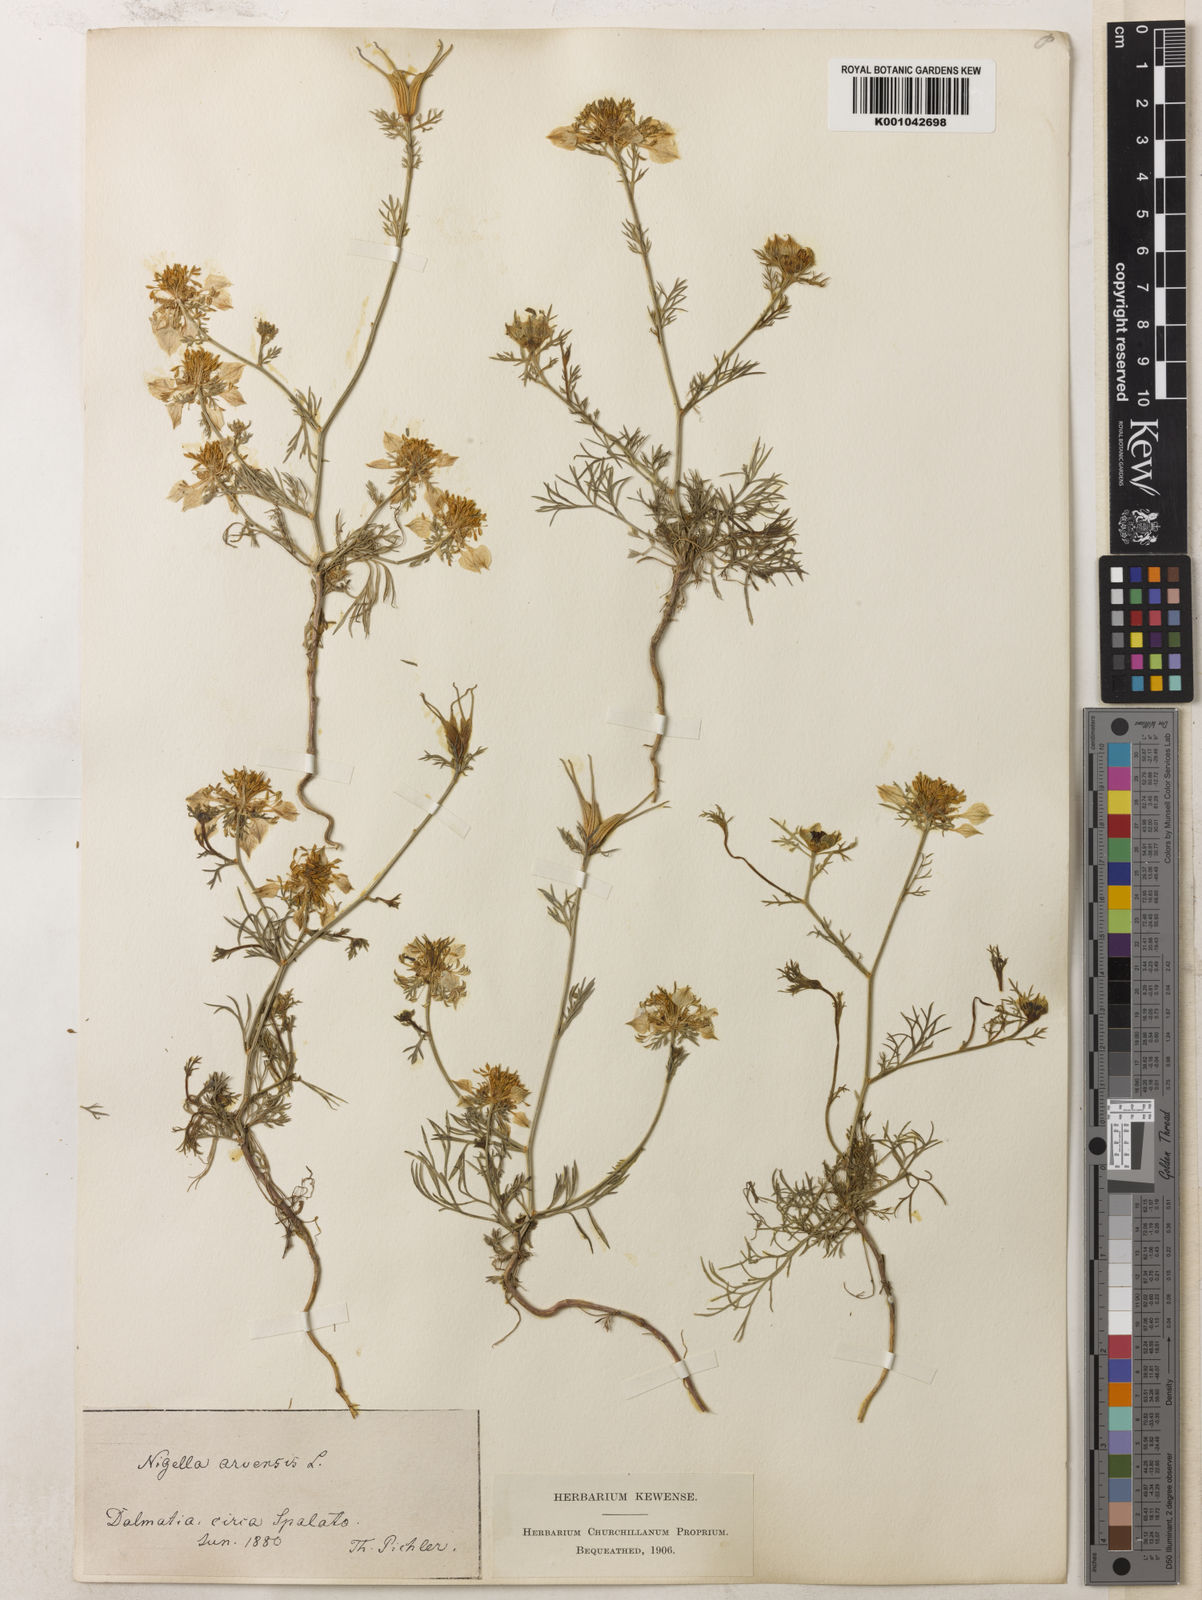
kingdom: Plantae
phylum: Tracheophyta
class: Magnoliopsida
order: Ranunculales
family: Ranunculaceae
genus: Nigella
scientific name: Nigella arvensis
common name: Wild fennel-flower
